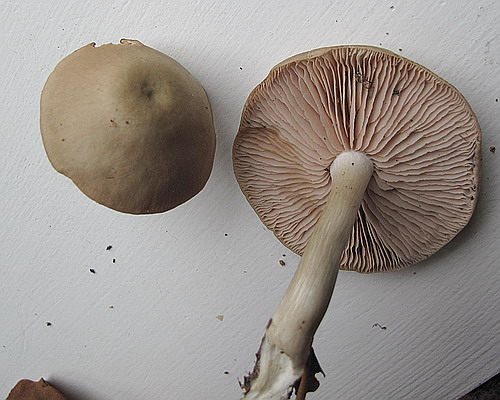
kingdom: Fungi
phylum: Basidiomycota
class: Agaricomycetes
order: Agaricales
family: Entolomataceae
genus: Entoloma
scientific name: Entoloma rhodopolium
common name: skov-rødblad
